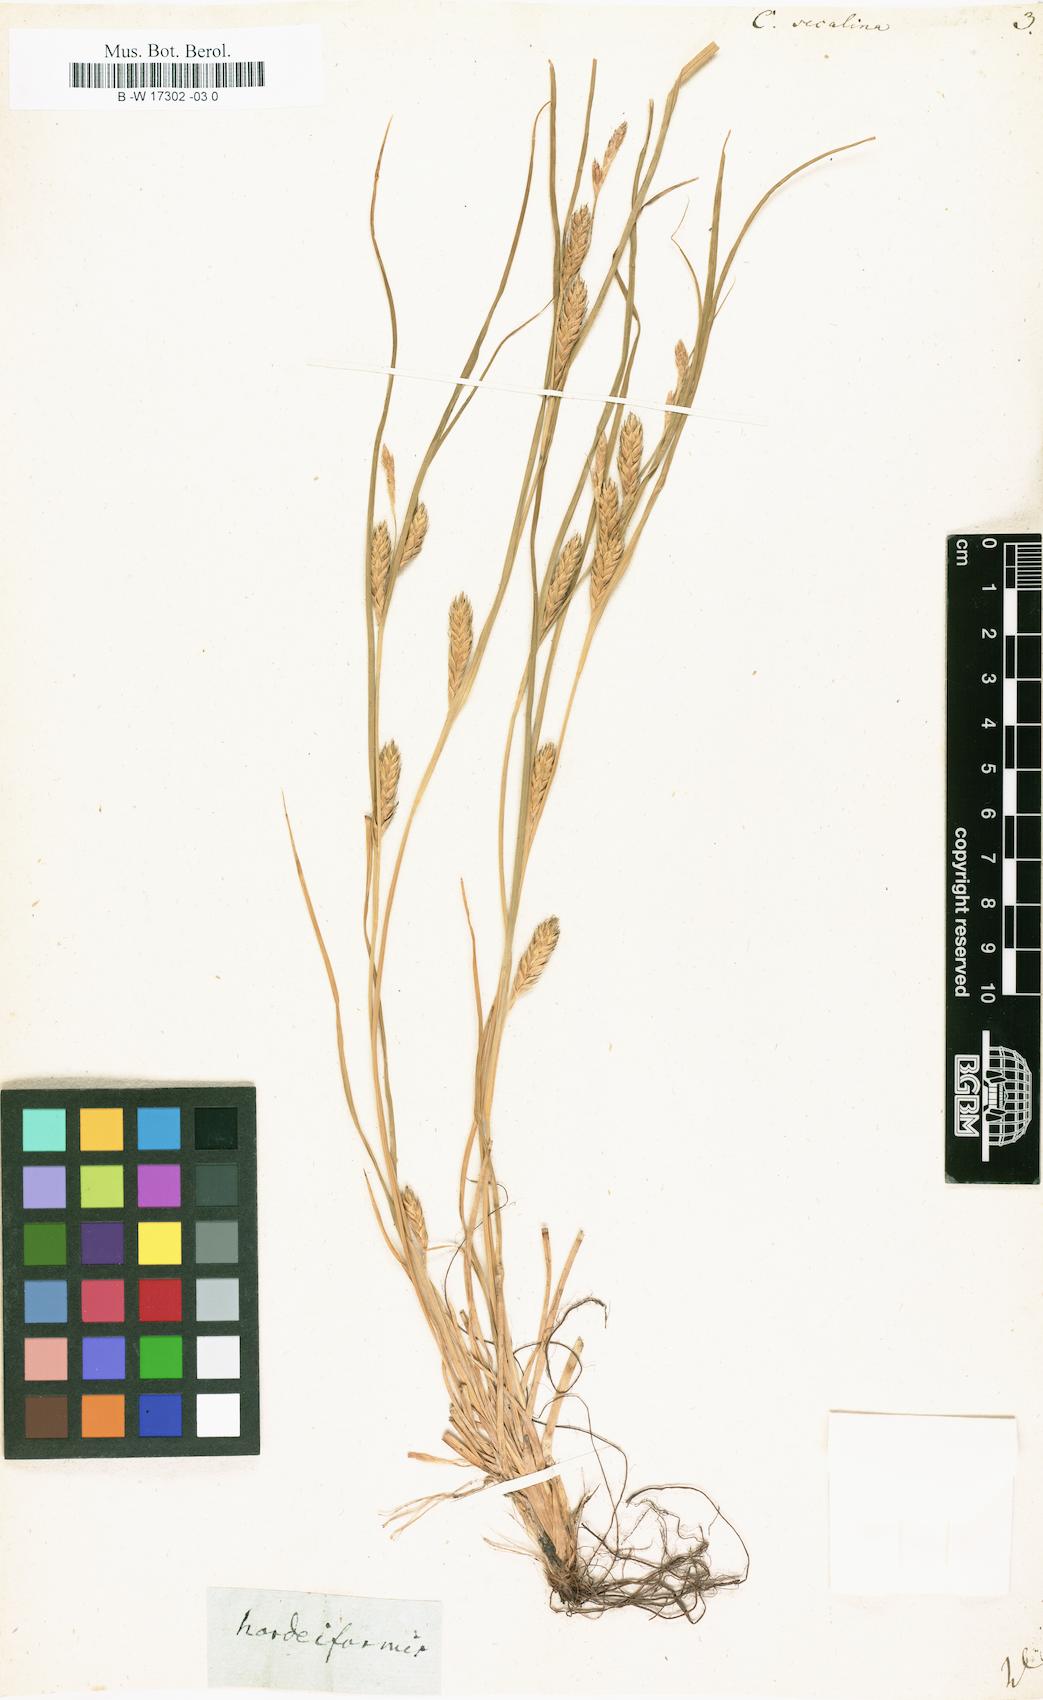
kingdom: Plantae
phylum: Tracheophyta
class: Liliopsida
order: Poales
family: Cyperaceae
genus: Carex
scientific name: Carex secalina
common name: Rye sedge
